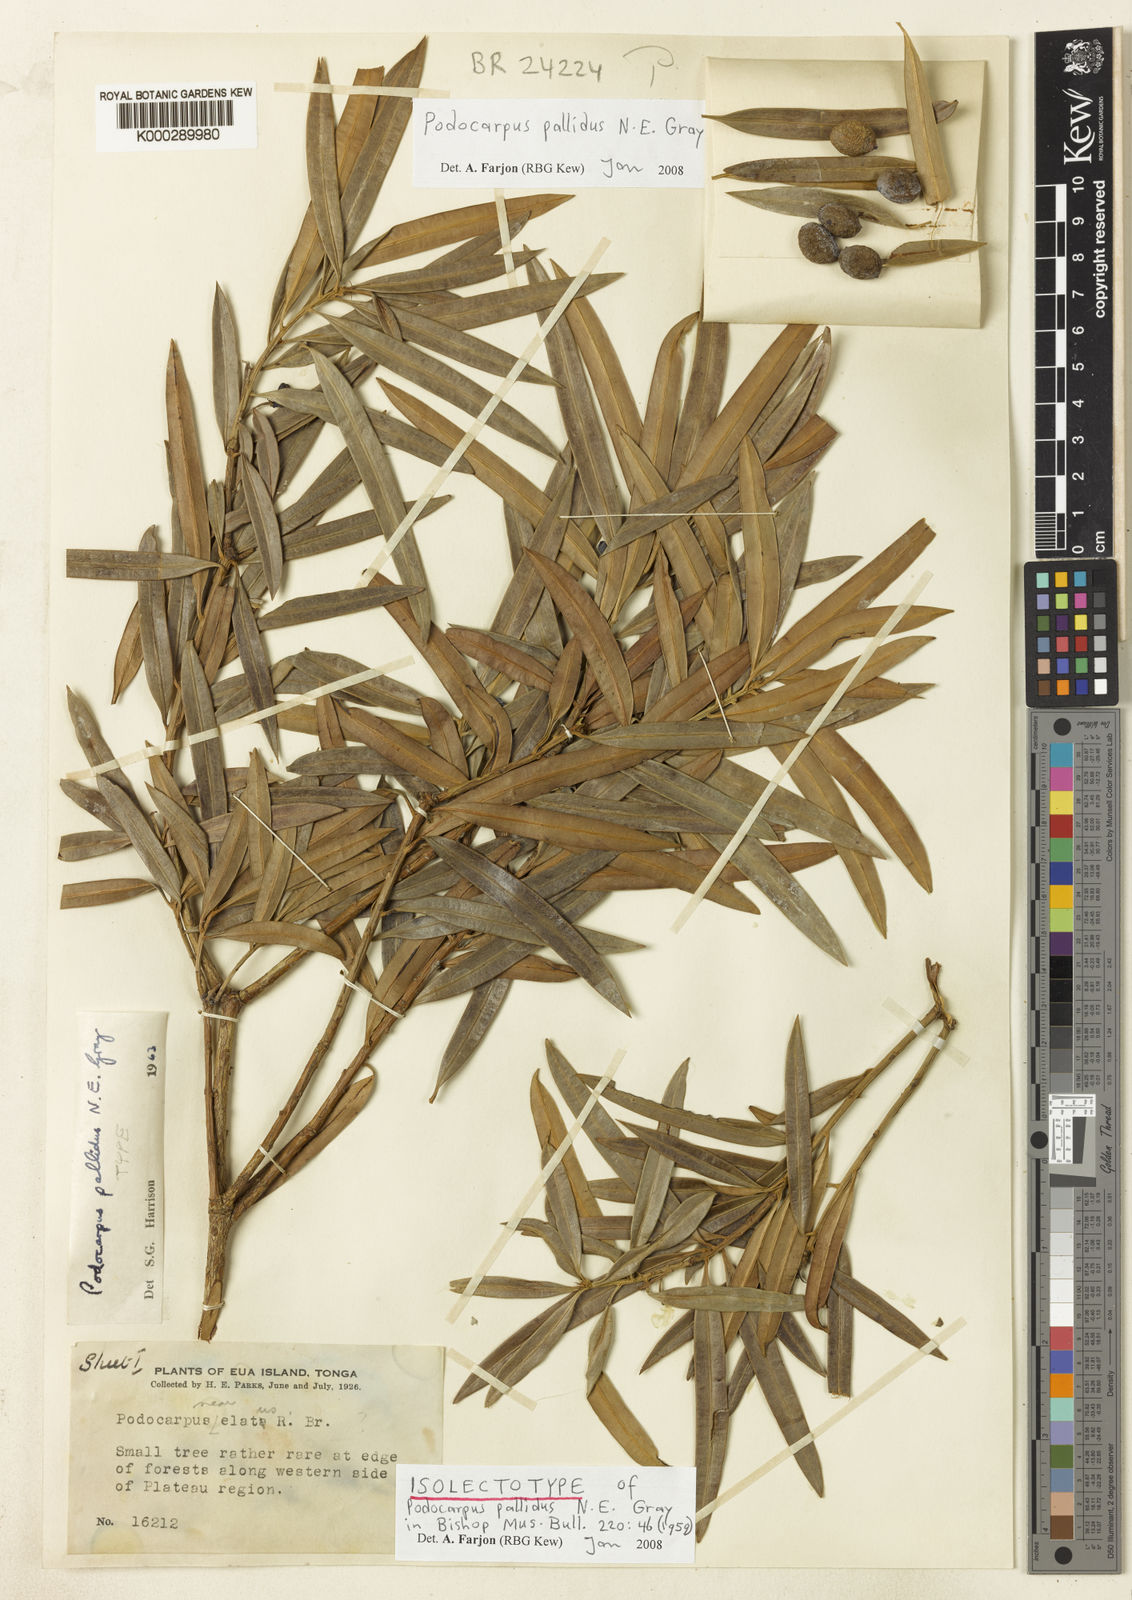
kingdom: Plantae
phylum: Tracheophyta
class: Pinopsida
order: Pinales
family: Podocarpaceae
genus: Podocarpus
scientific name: Podocarpus pallidus
